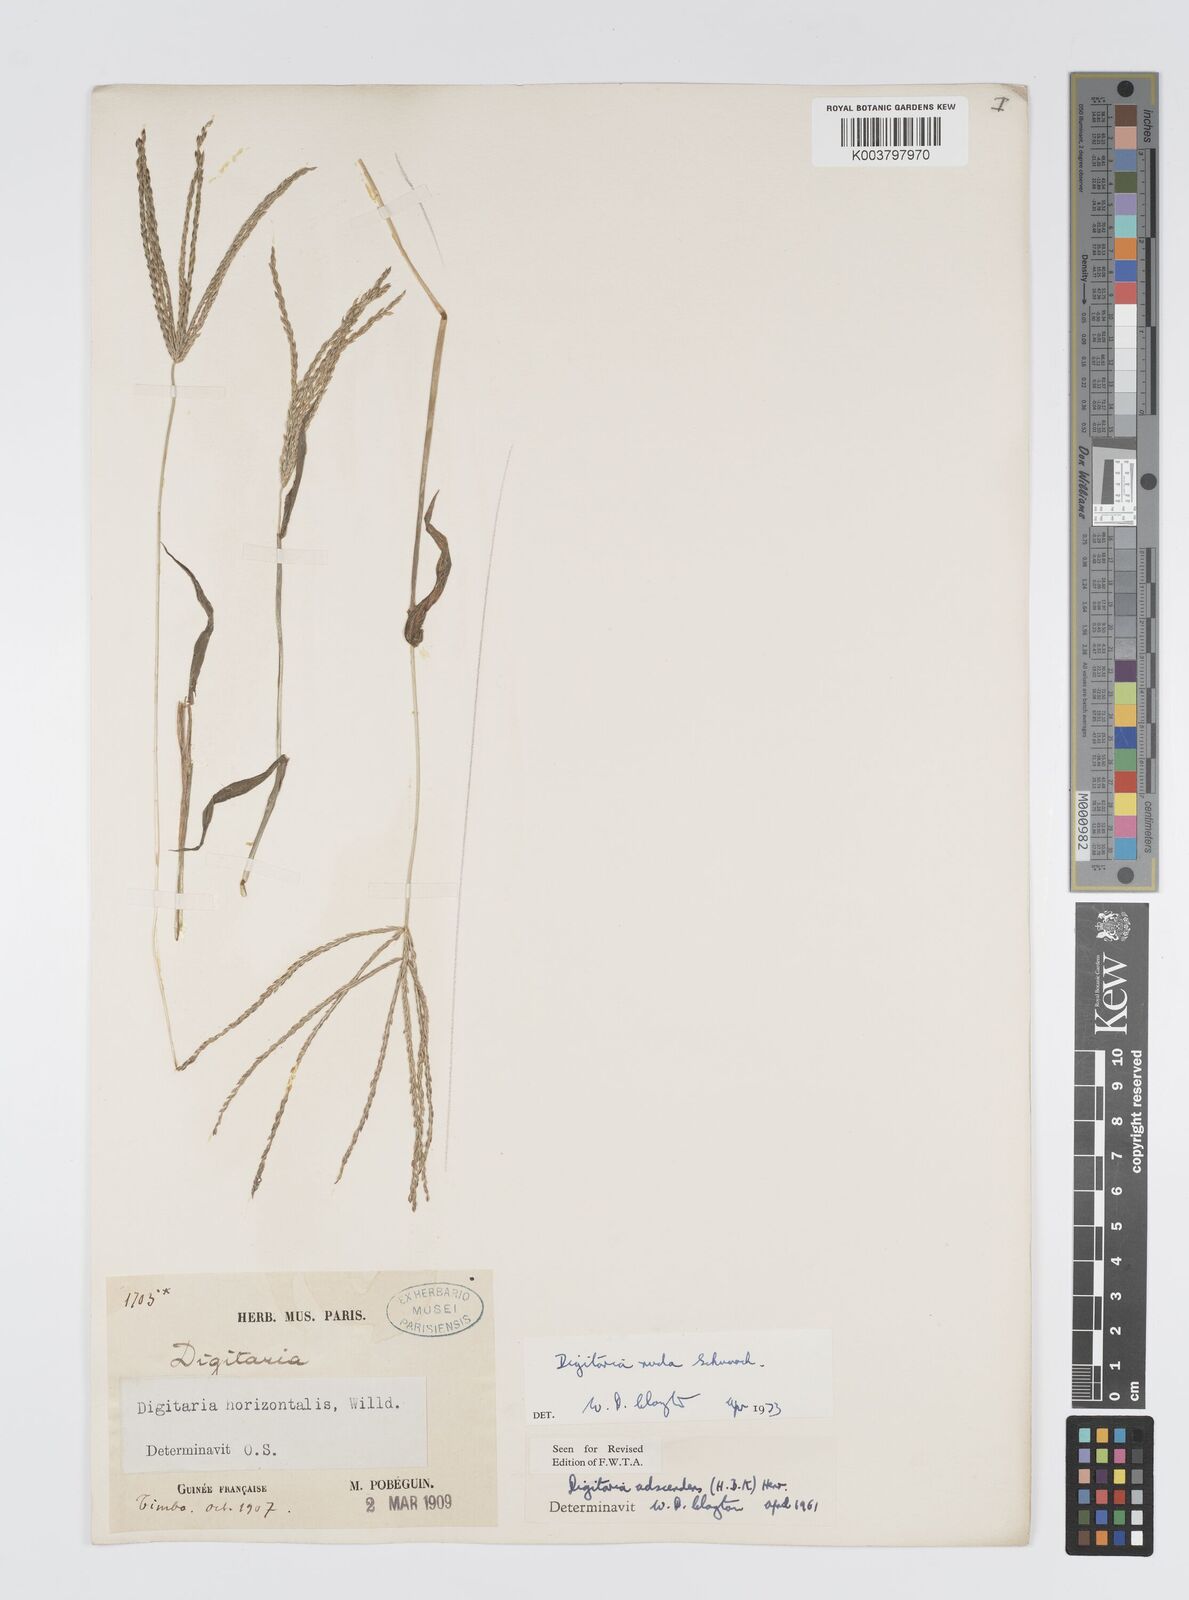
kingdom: Plantae
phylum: Tracheophyta
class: Liliopsida
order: Poales
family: Poaceae
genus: Digitaria
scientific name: Digitaria nuda
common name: Naked crabgrass
